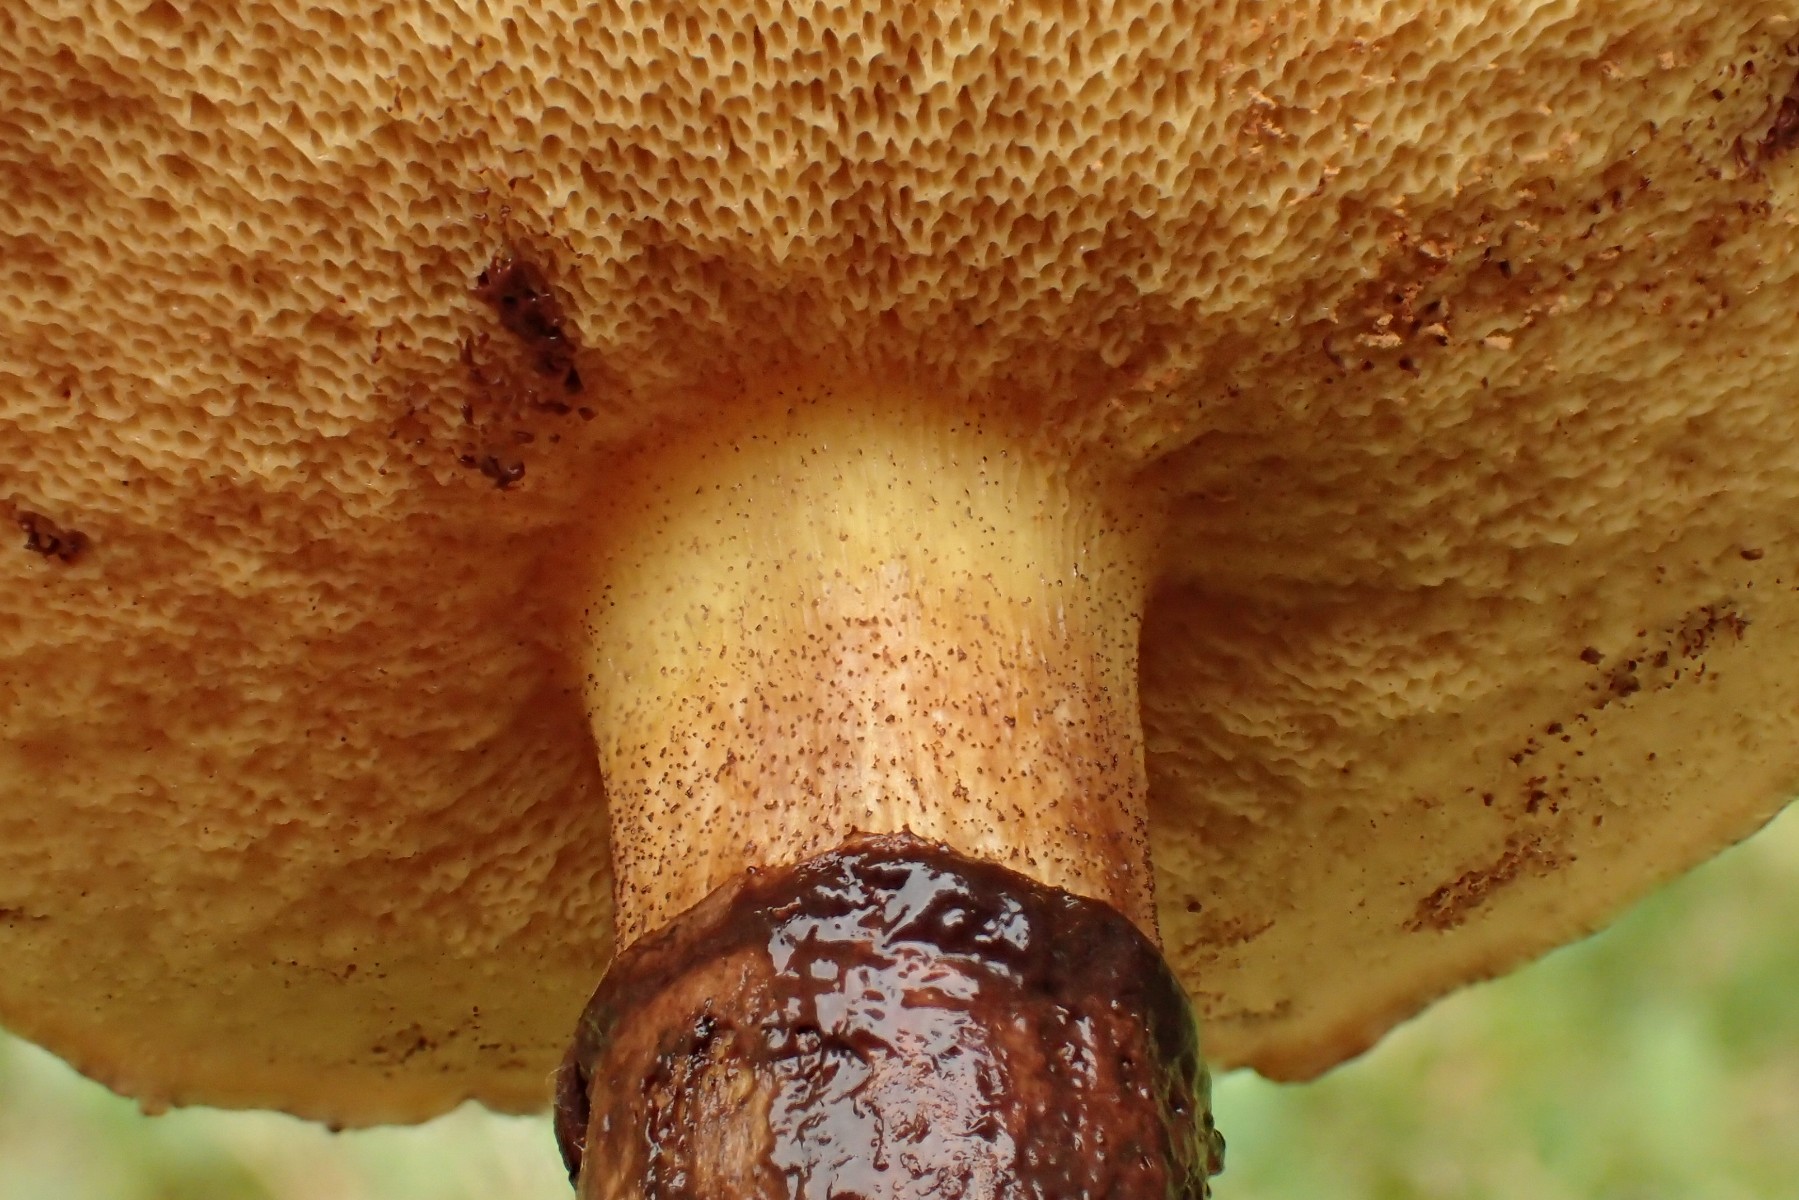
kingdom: Fungi
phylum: Basidiomycota
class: Agaricomycetes
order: Boletales
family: Suillaceae
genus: Suillus
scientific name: Suillus luteus
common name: brungul slimrørhat
